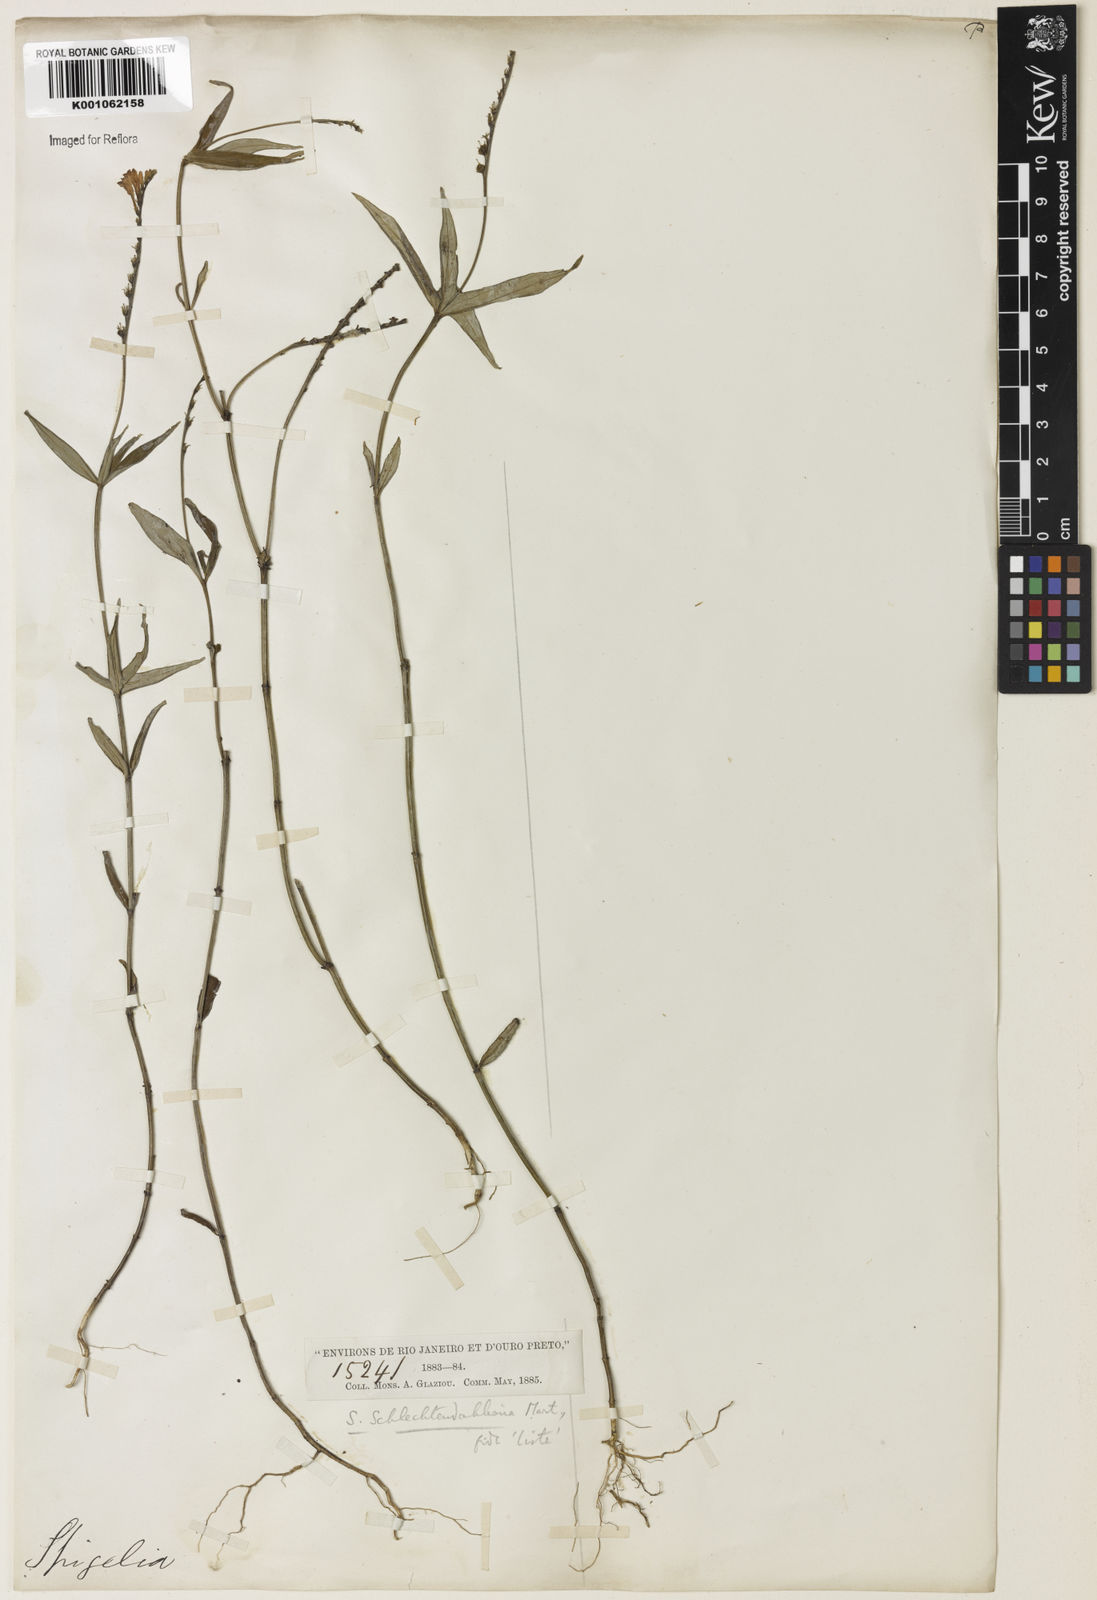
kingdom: Plantae
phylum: Tracheophyta
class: Magnoliopsida
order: Gentianales
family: Loganiaceae
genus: Spigelia
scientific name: Spigelia schlechtendaliana
